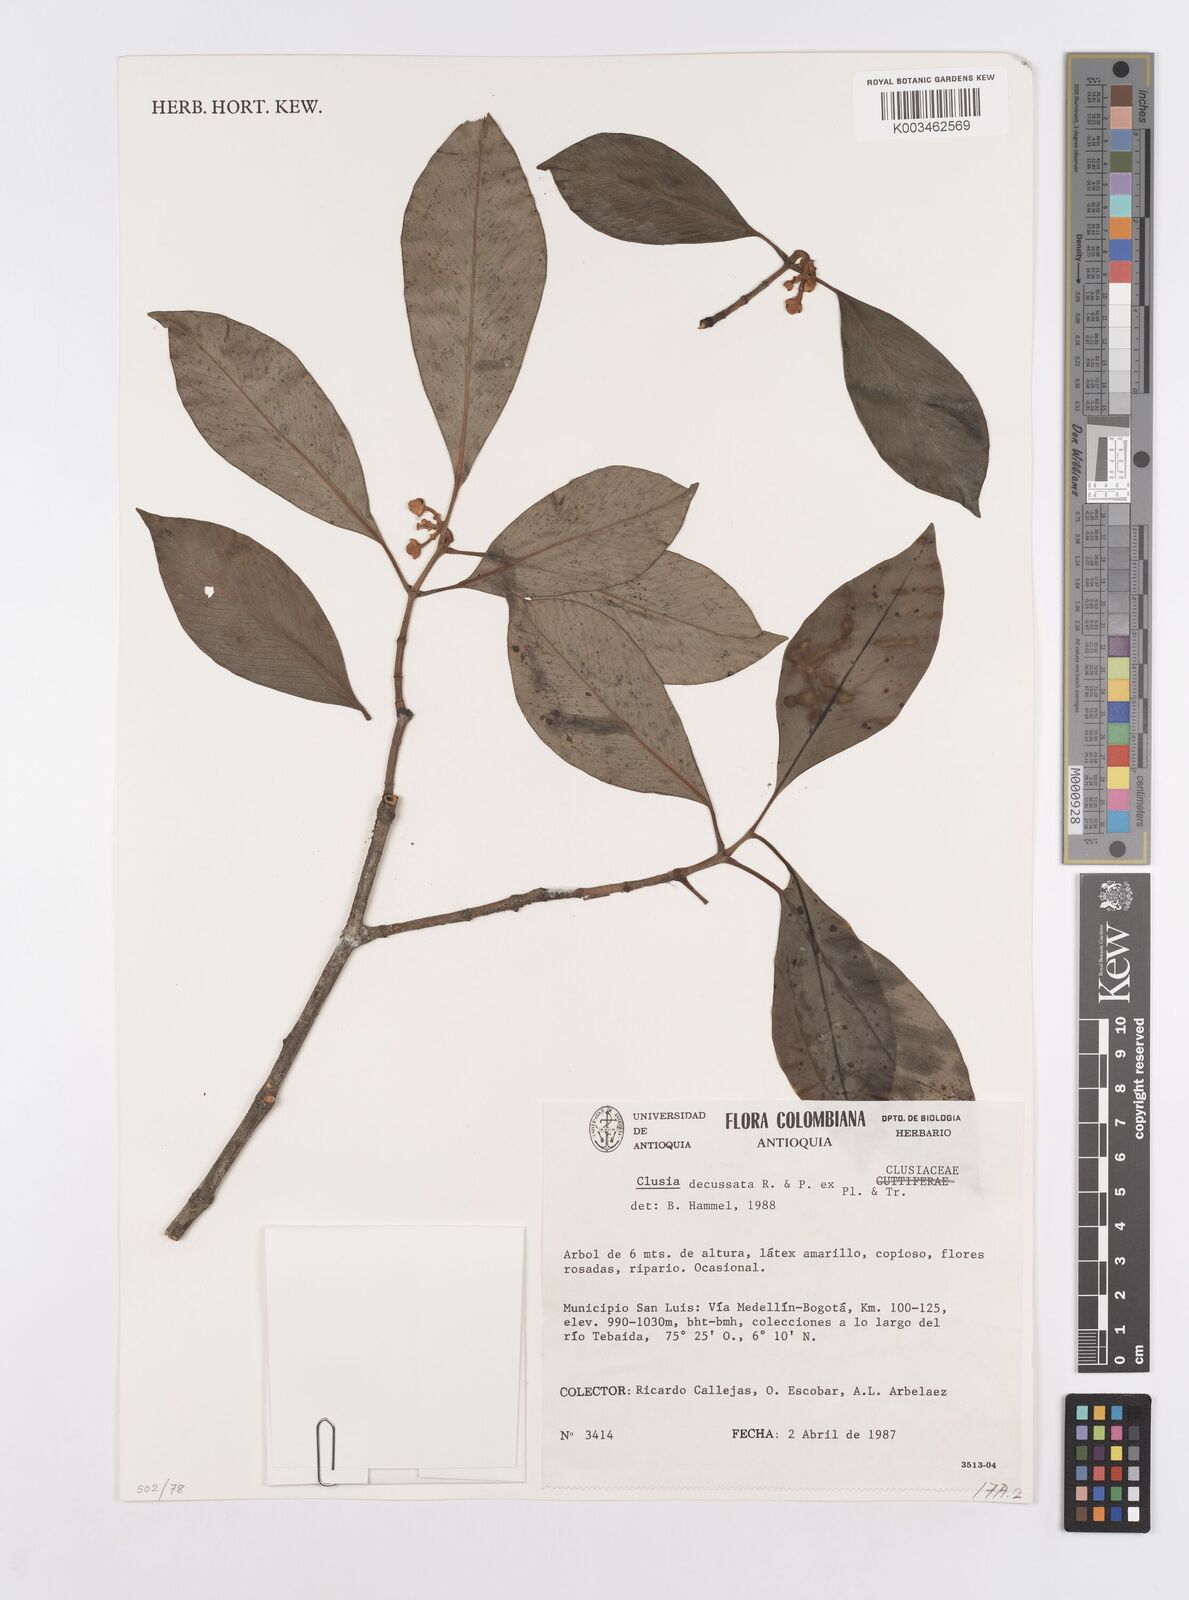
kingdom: Plantae
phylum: Tracheophyta
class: Magnoliopsida
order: Malpighiales
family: Clusiaceae
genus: Clusia
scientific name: Clusia decussata
